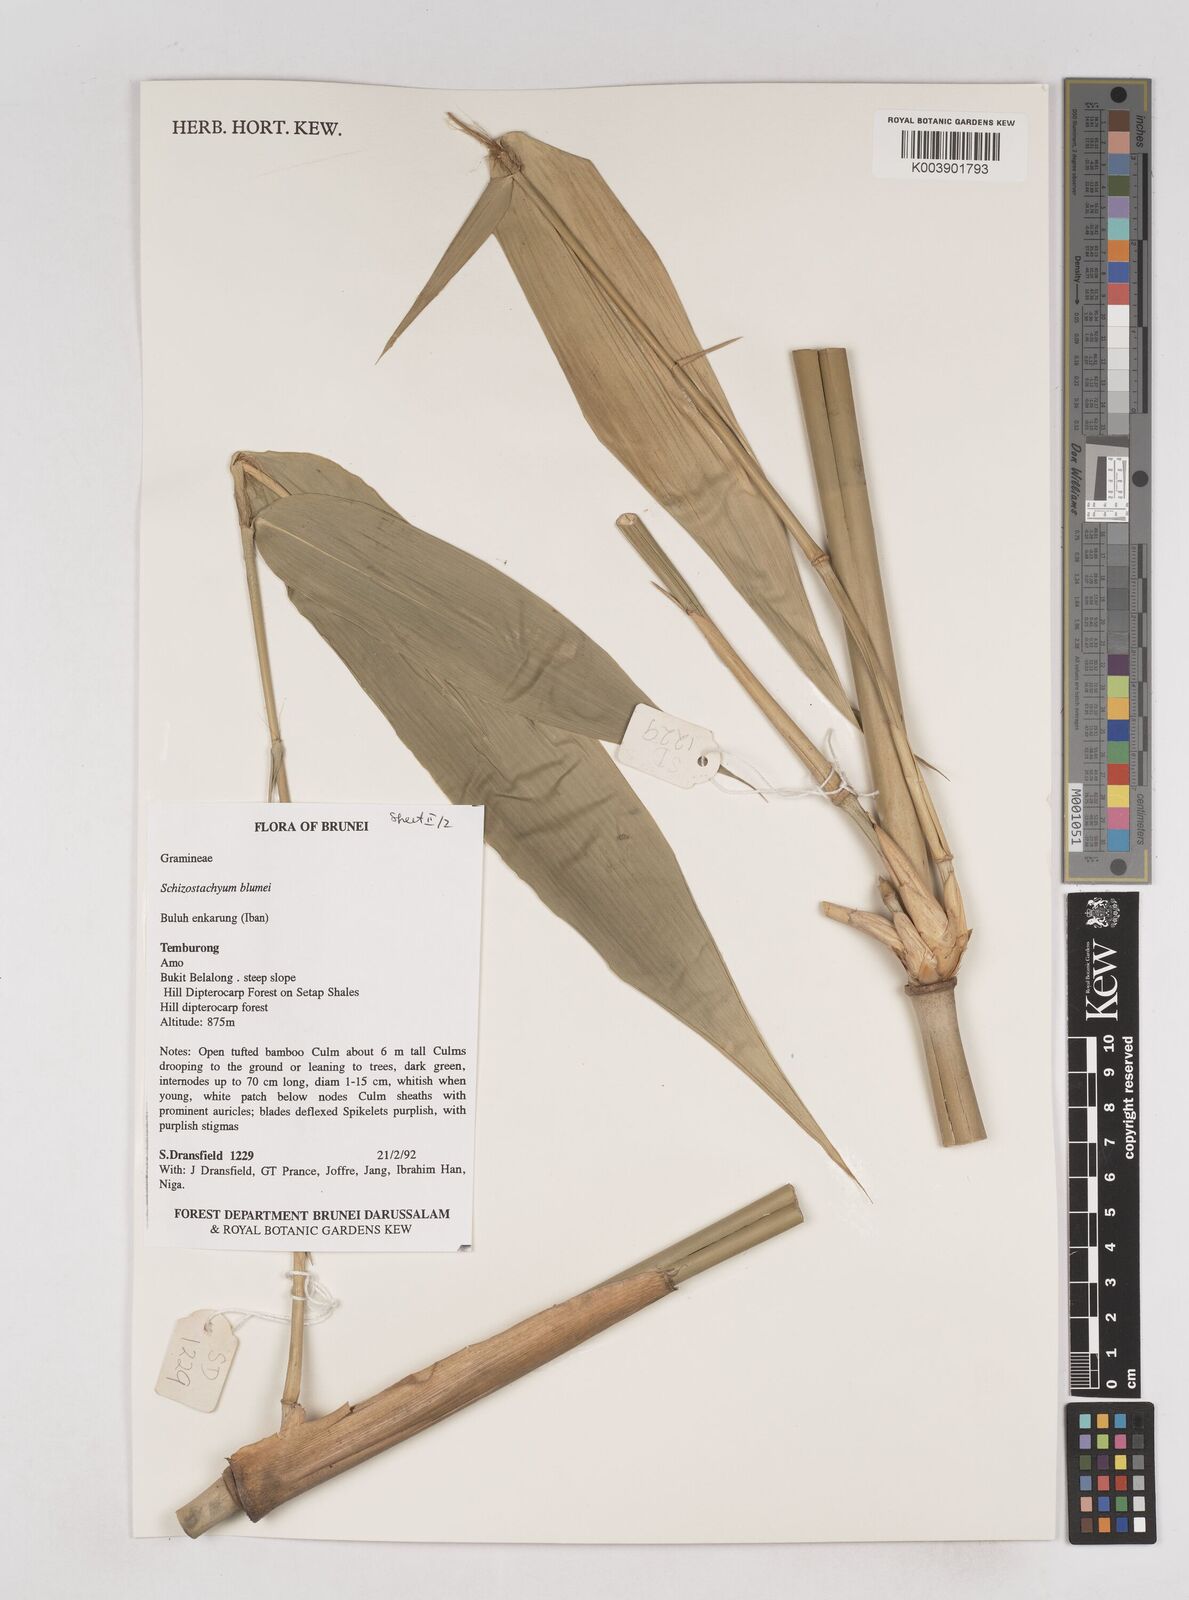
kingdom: Plantae
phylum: Tracheophyta
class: Liliopsida
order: Poales
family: Poaceae
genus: Schizostachyum
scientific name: Schizostachyum blumei
